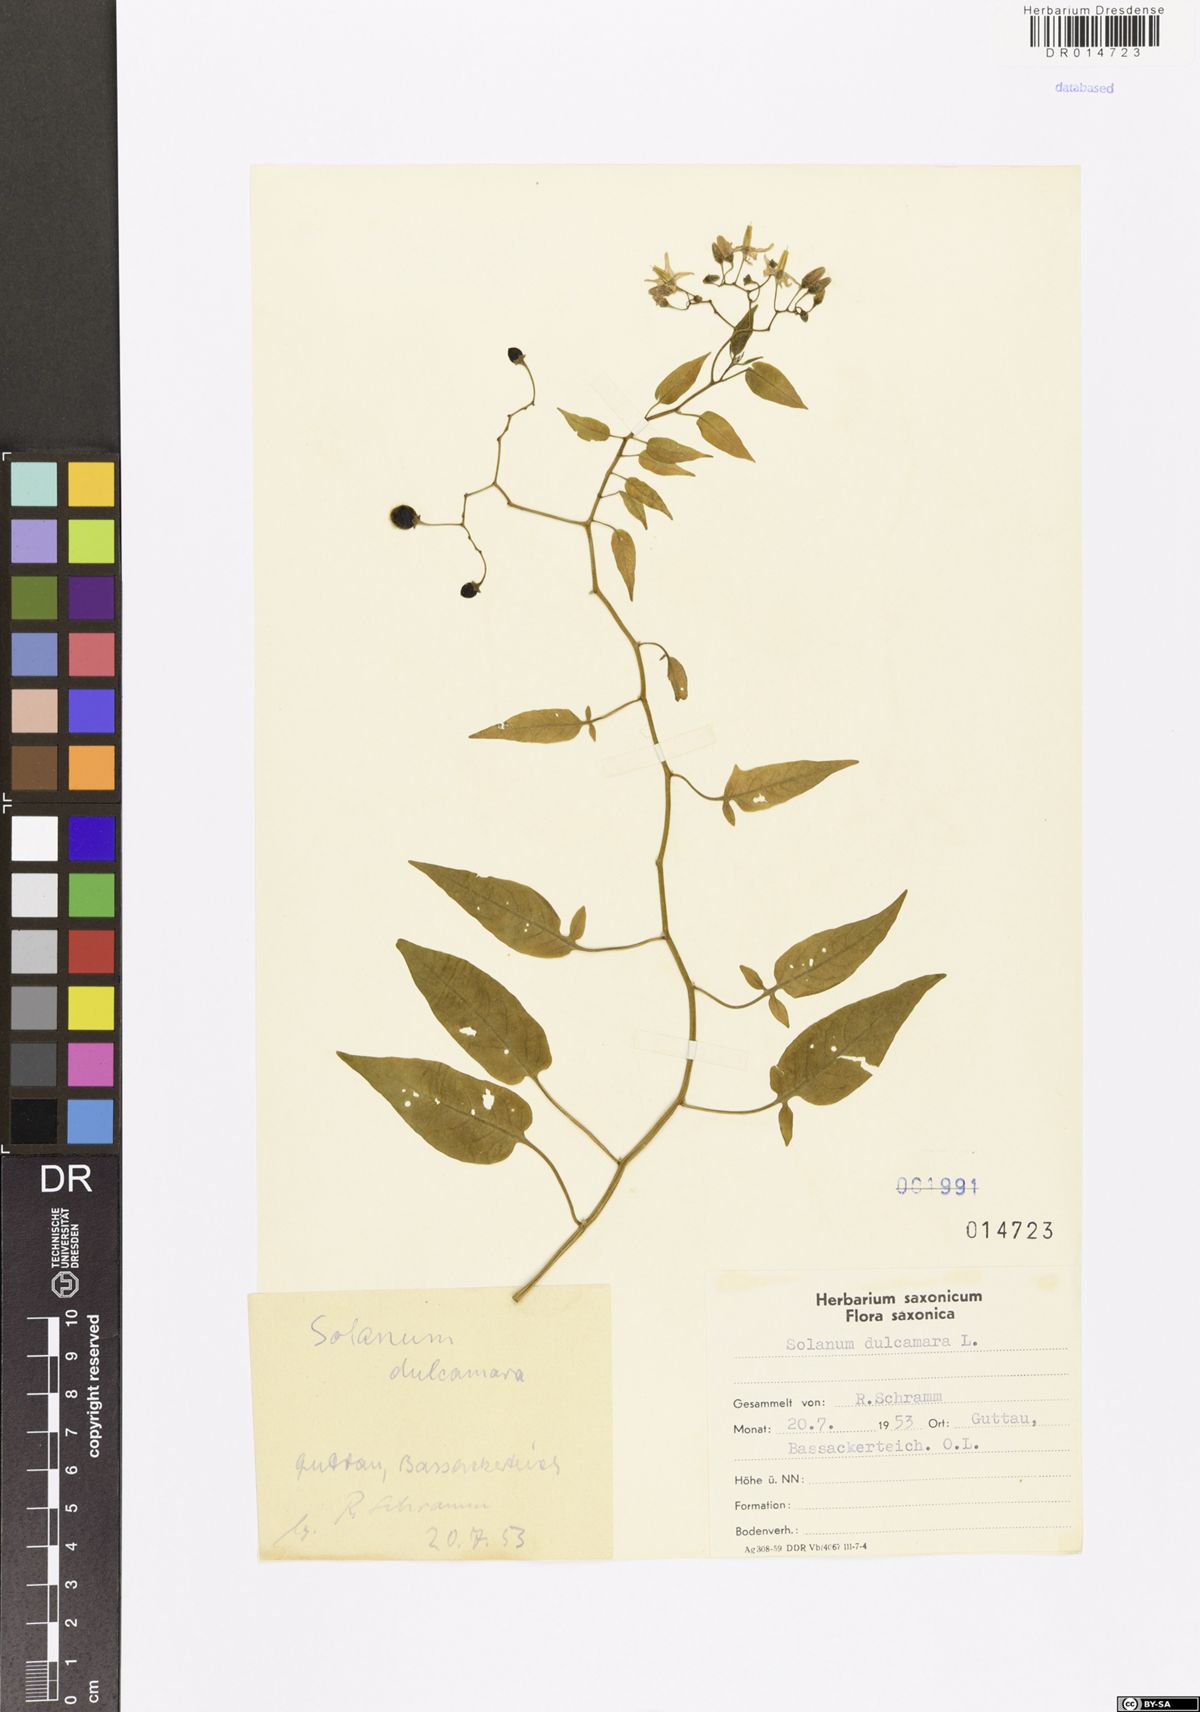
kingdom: Plantae
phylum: Tracheophyta
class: Magnoliopsida
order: Solanales
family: Solanaceae
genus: Solanum
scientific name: Solanum dulcamara
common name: Climbing nightshade
